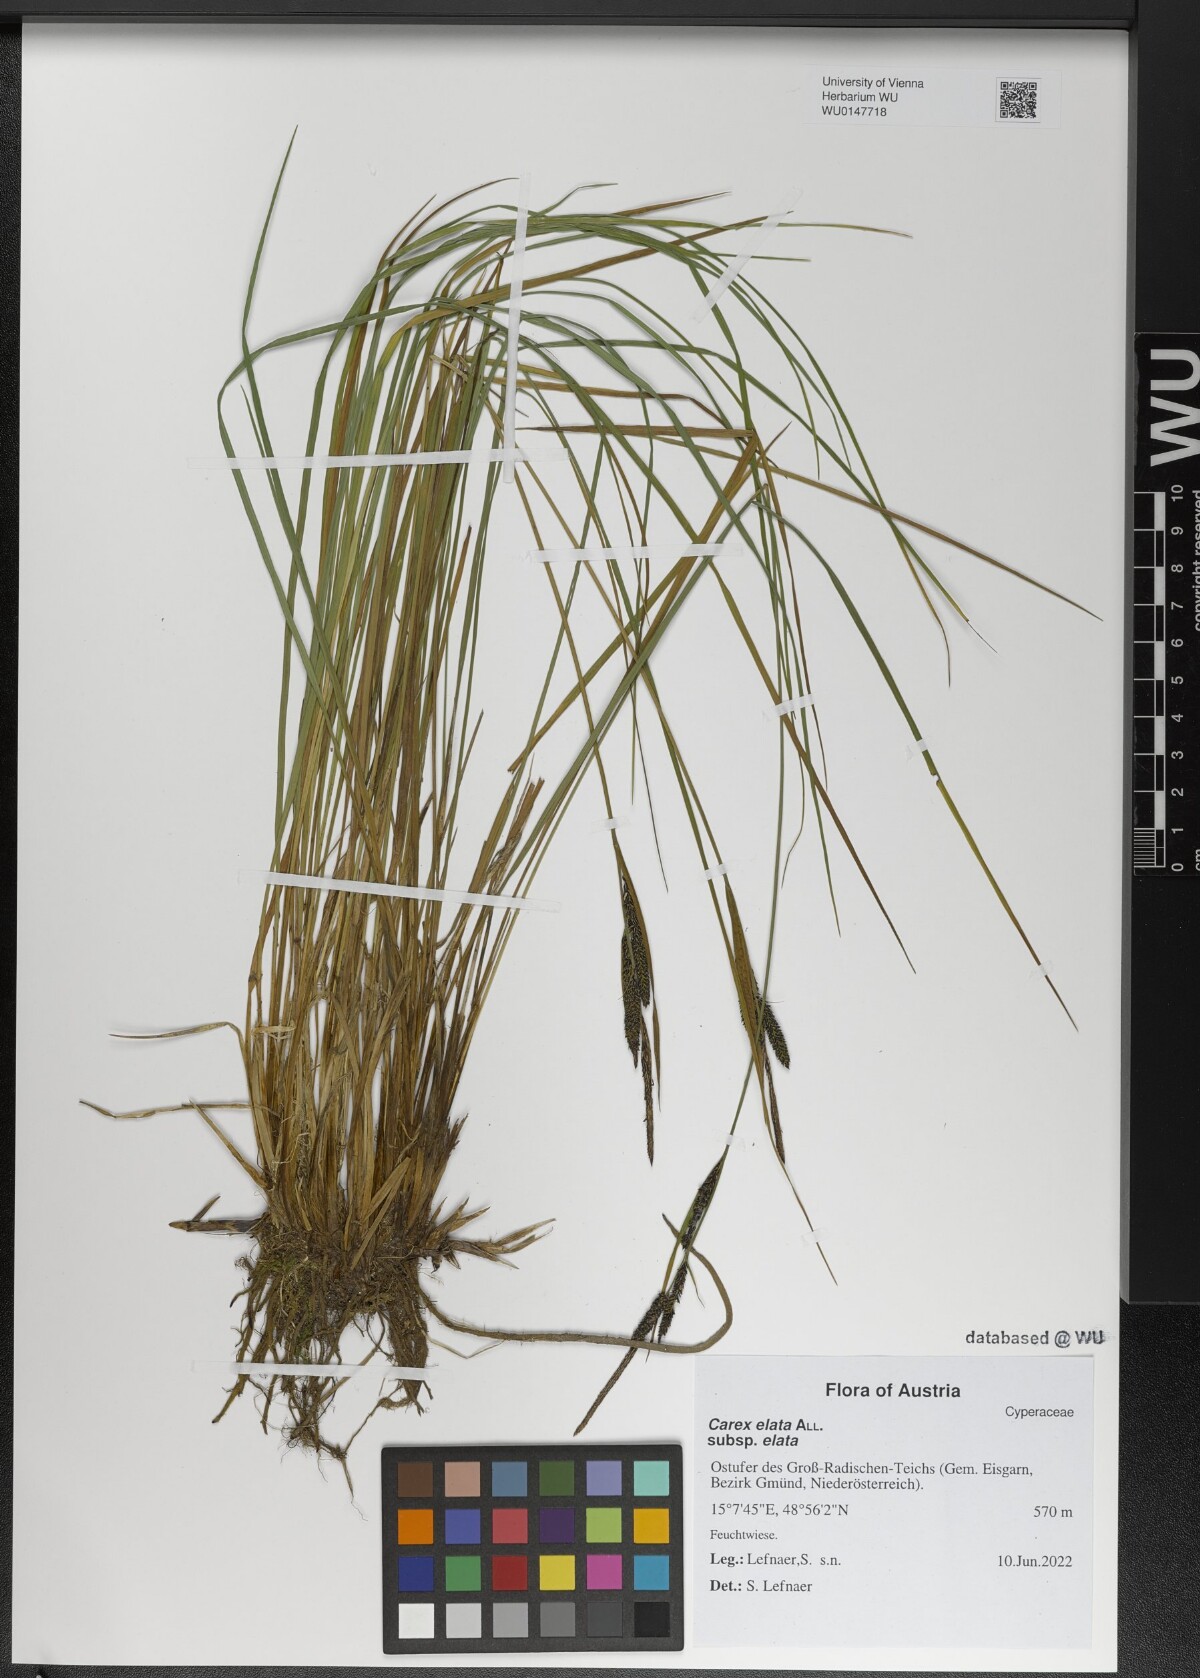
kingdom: Plantae
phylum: Tracheophyta
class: Liliopsida
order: Poales
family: Cyperaceae
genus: Carex
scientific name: Carex elata
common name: Tufted sedge
